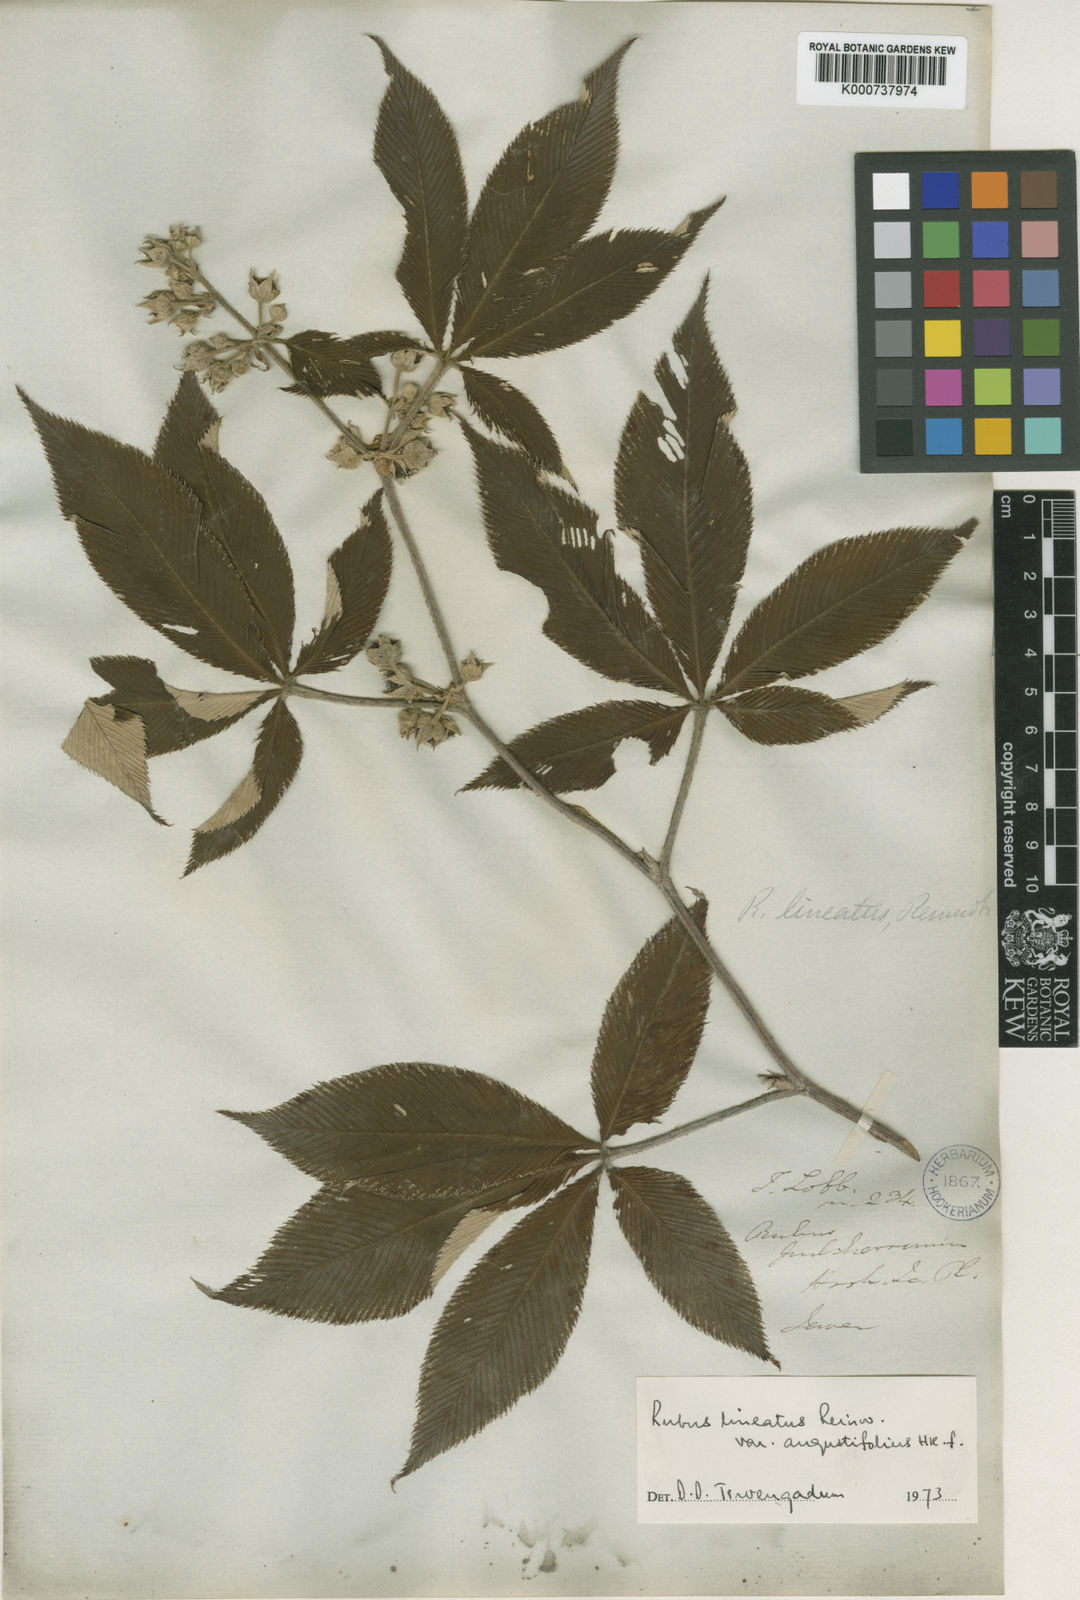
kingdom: Plantae
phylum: Tracheophyta
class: Magnoliopsida
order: Rosales
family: Rosaceae
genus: Rubus
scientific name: Rubus
